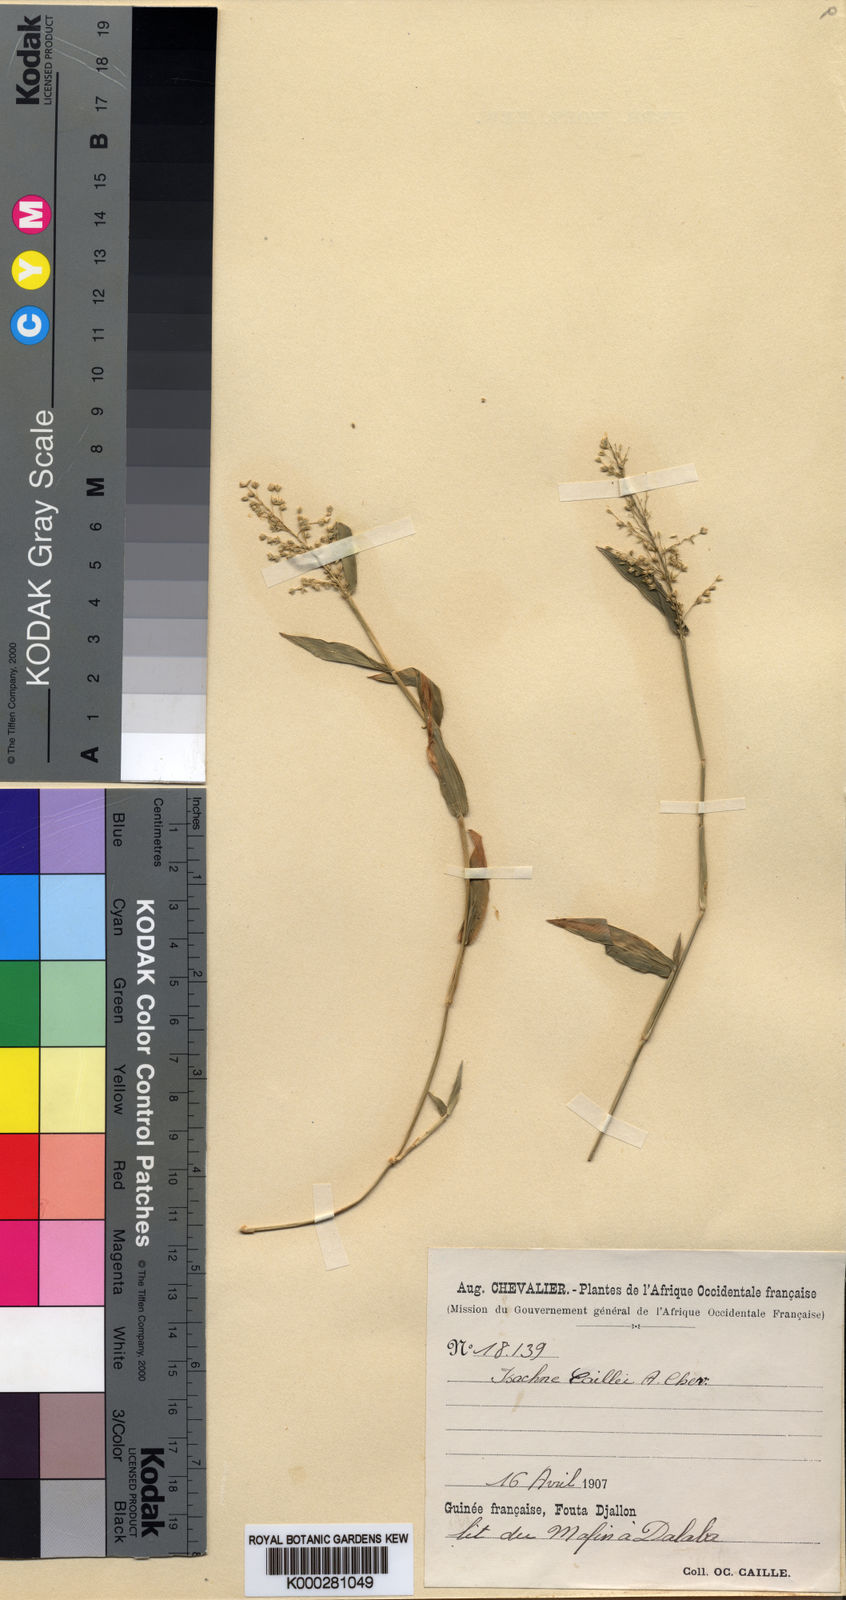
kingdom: Plantae
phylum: Tracheophyta
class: Liliopsida
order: Poales
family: Poaceae
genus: Isachne
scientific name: Isachne kiyalaensis
